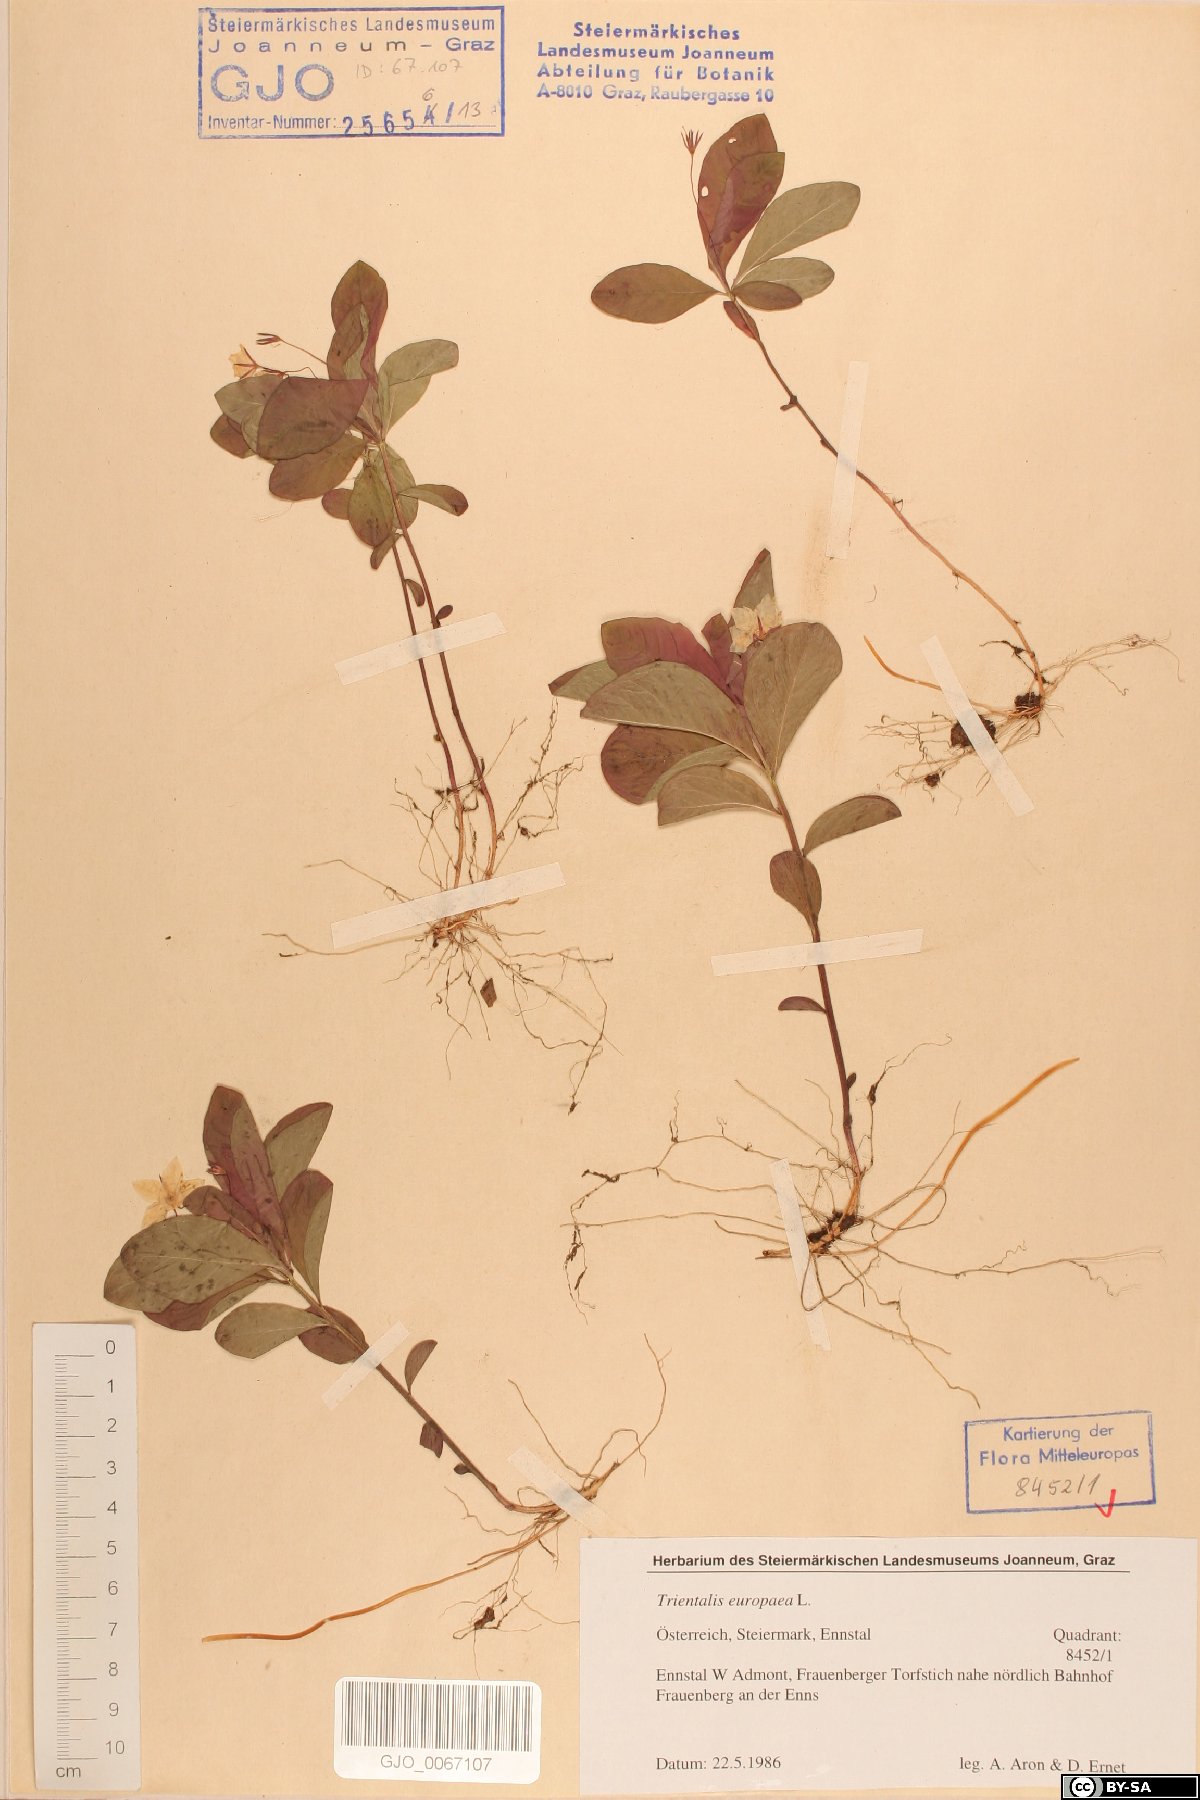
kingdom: Plantae
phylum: Tracheophyta
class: Magnoliopsida
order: Ericales
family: Primulaceae
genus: Lysimachia
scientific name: Lysimachia europaea
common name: Arctic starflower
